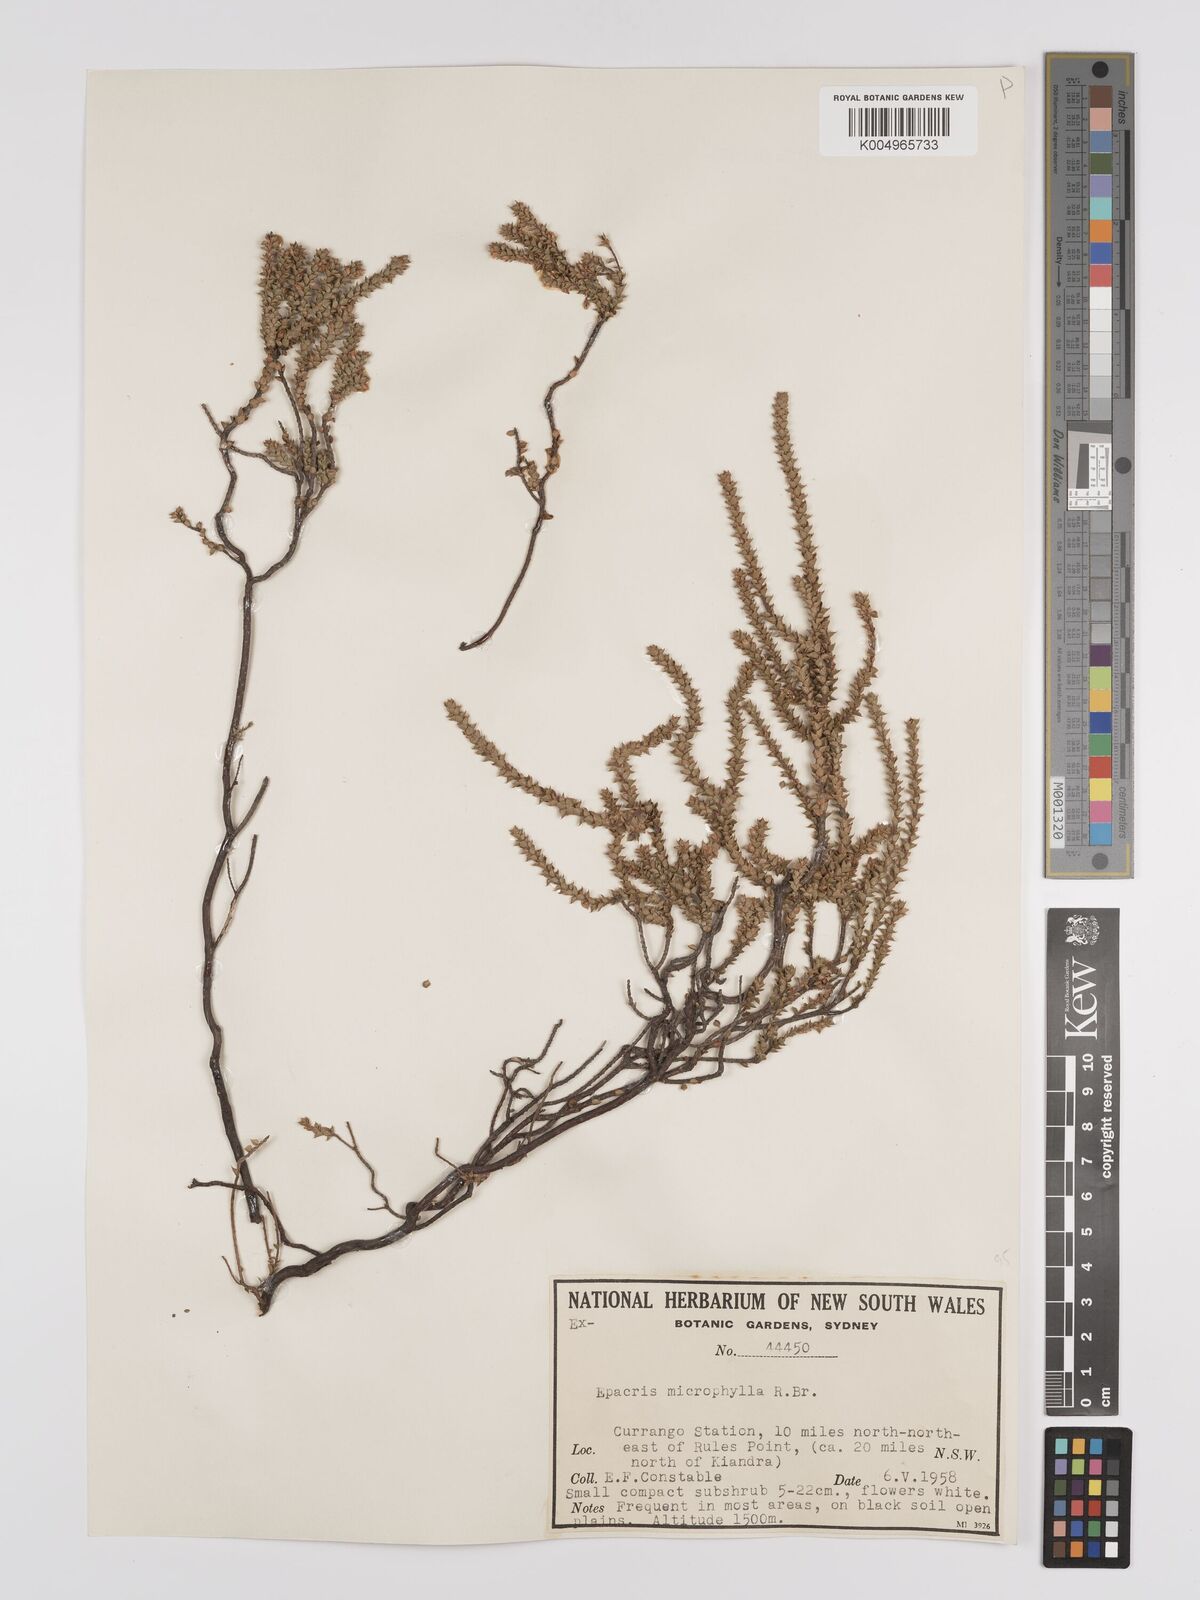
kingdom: Plantae
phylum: Tracheophyta
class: Magnoliopsida
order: Ericales
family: Ericaceae
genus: Epacris
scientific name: Epacris
